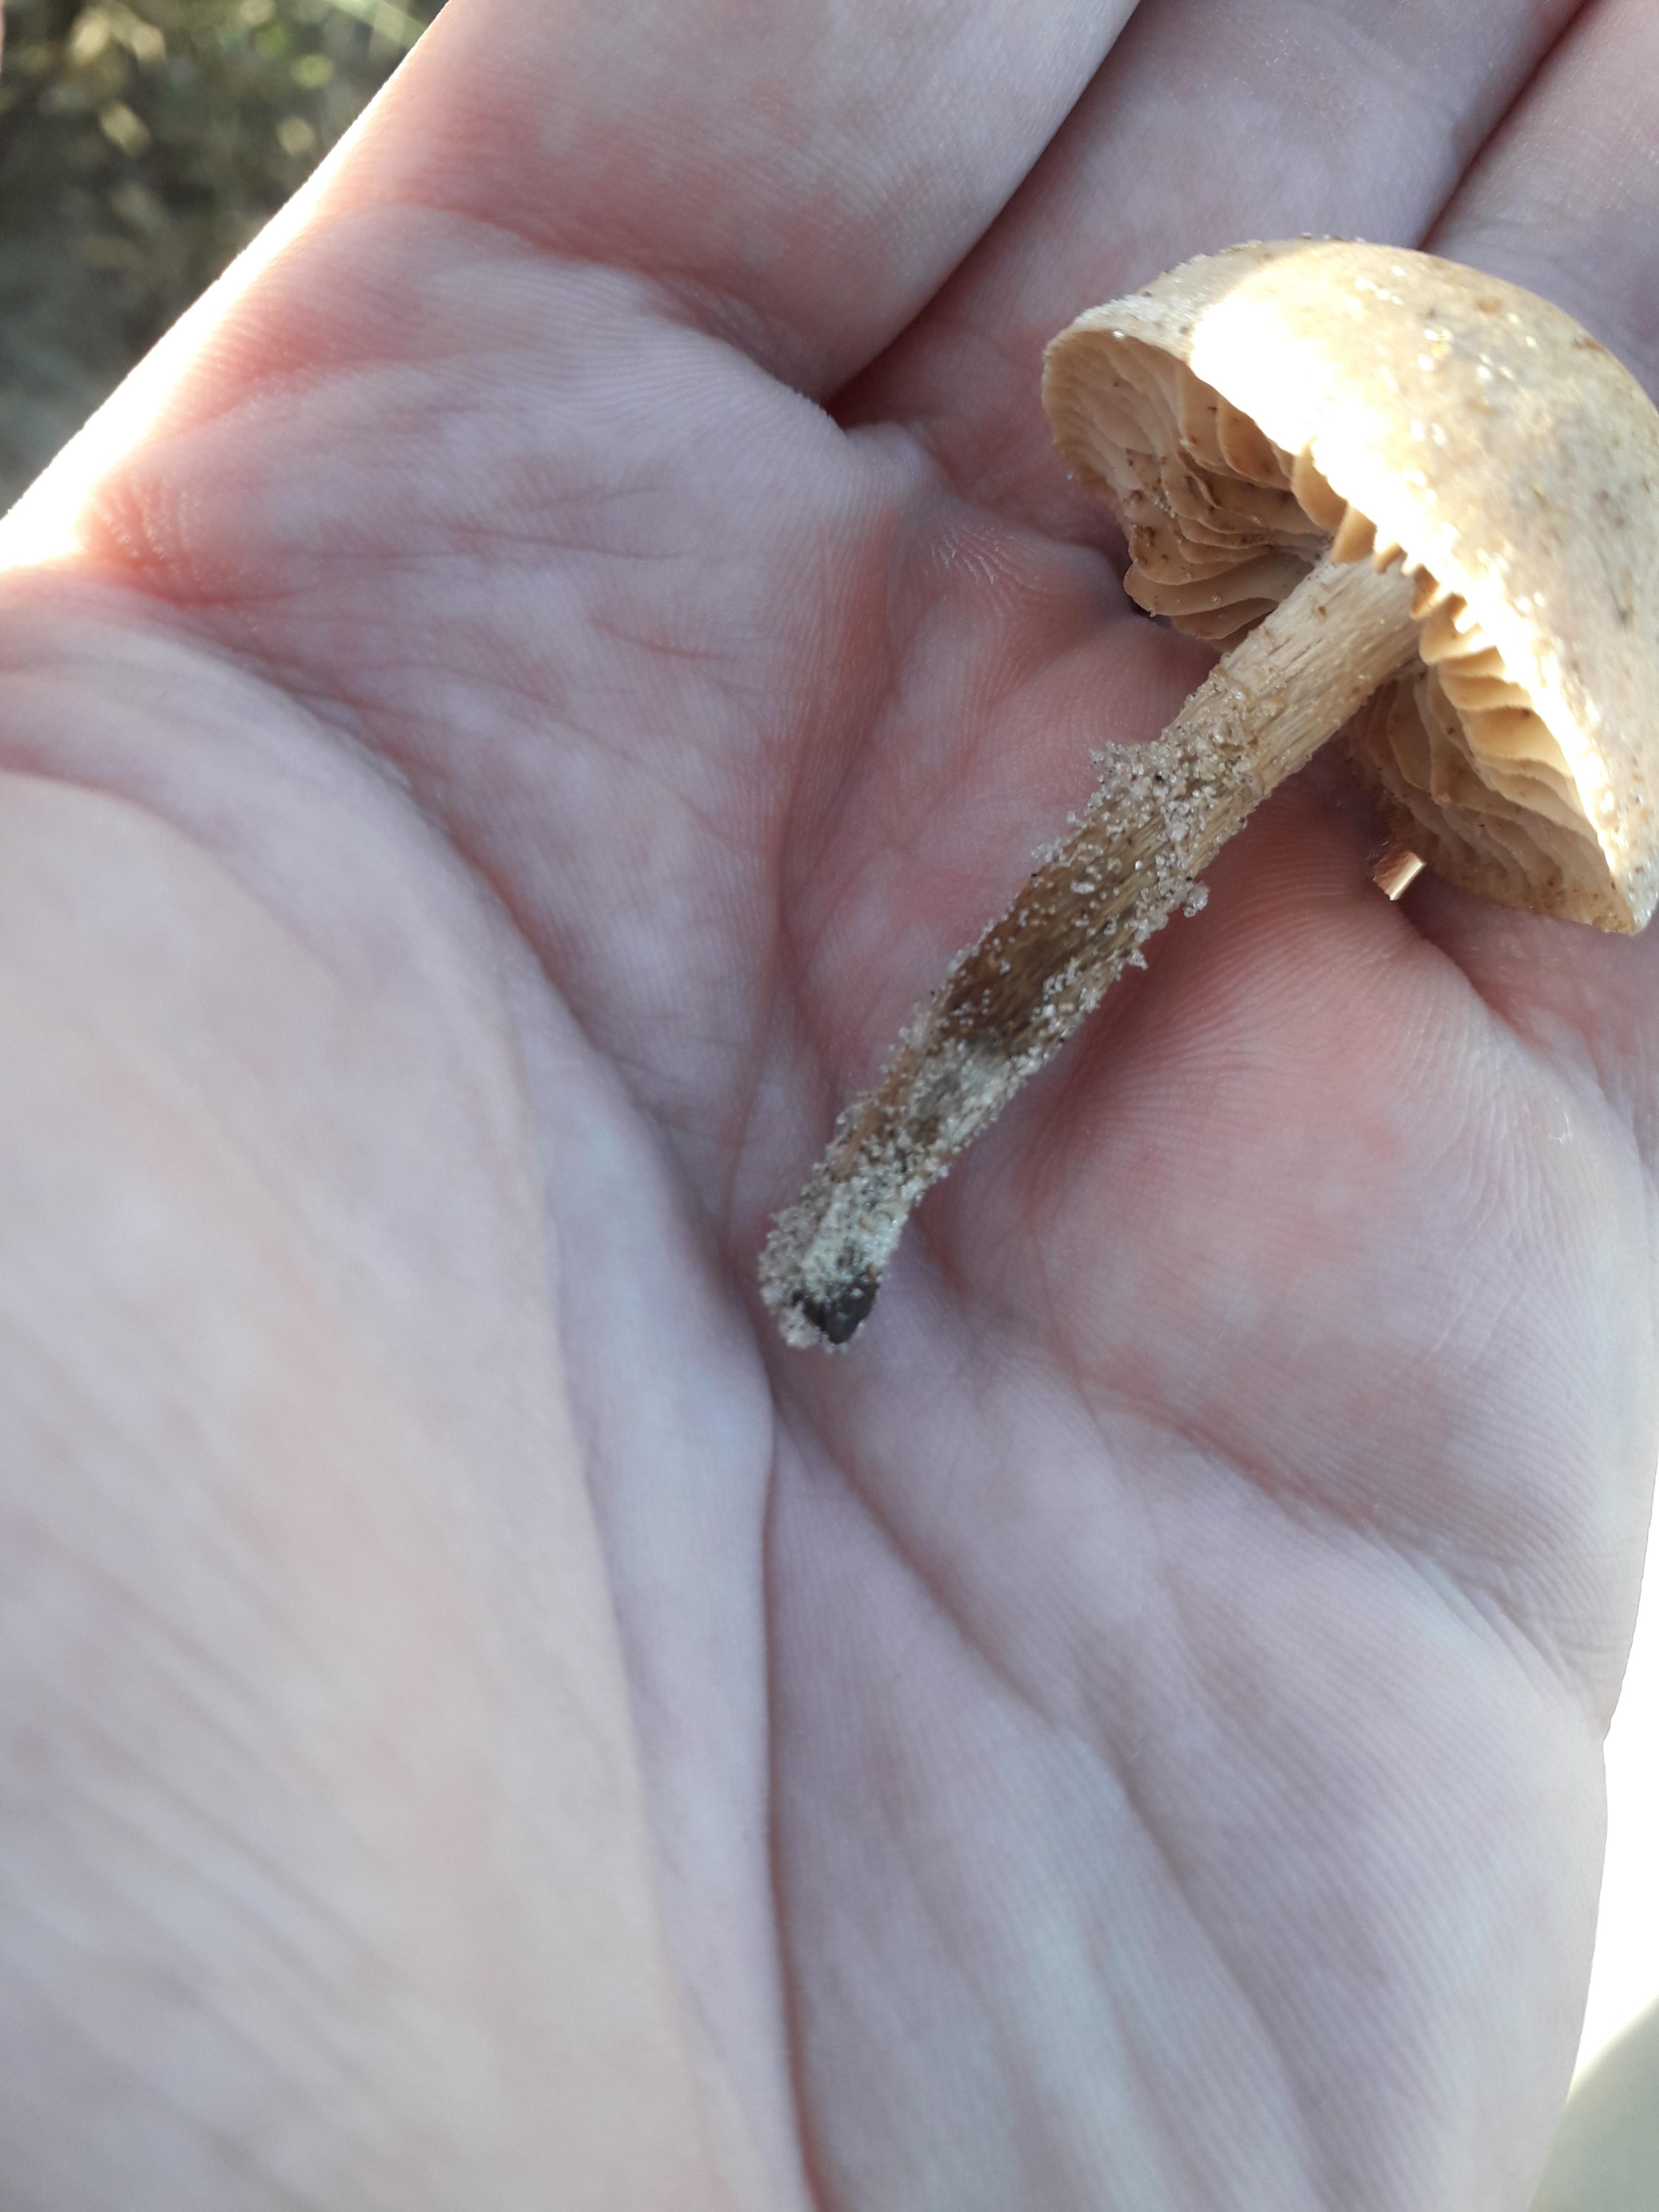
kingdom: Fungi
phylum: Basidiomycota
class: Agaricomycetes
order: Agaricales
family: Hymenogastraceae
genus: Hebeloma
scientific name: Hebeloma
